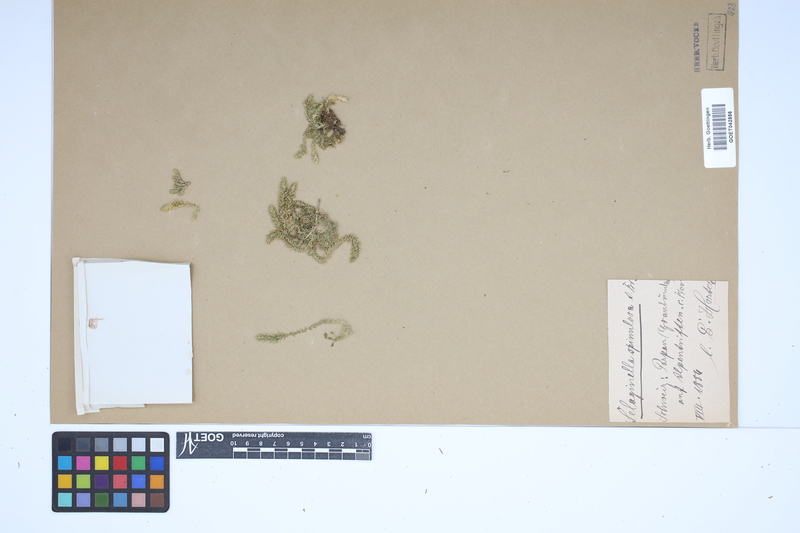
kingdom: Plantae
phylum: Tracheophyta
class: Lycopodiopsida
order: Selaginellales
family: Selaginellaceae
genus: Selaginella
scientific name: Selaginella selaginoides
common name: Prickly mountain-moss
